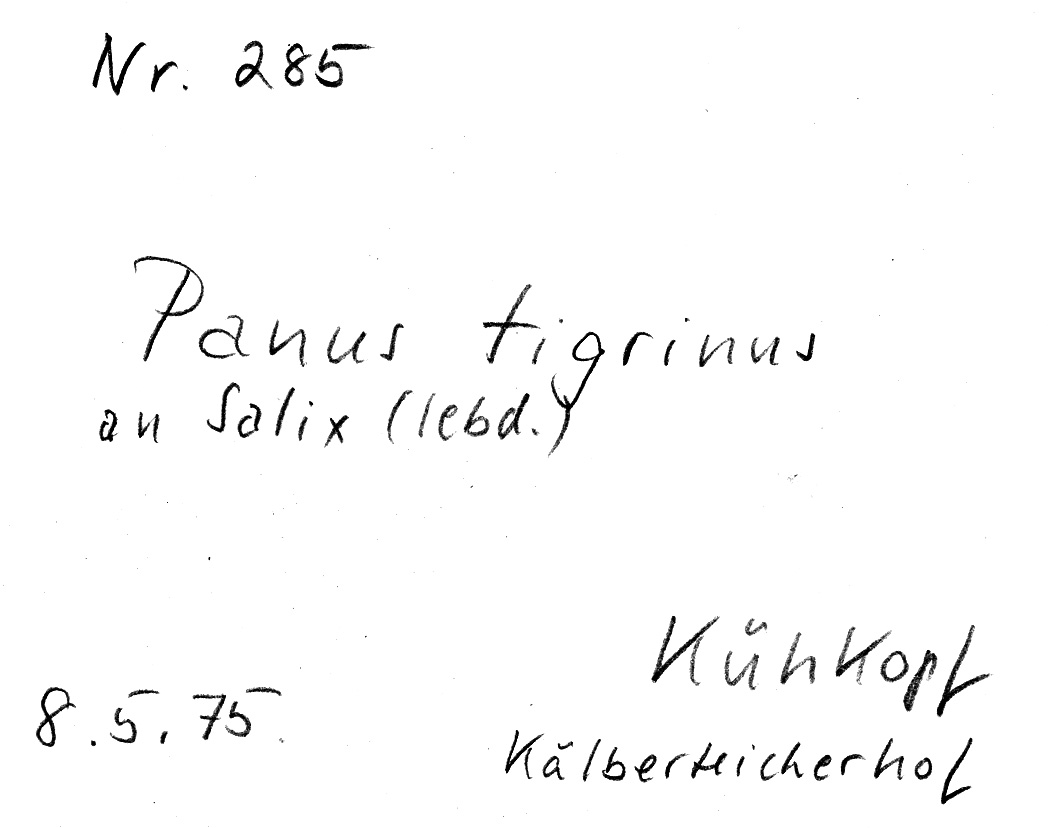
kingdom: Fungi
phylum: Basidiomycota
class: Agaricomycetes
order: Polyporales
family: Polyporaceae
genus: Lentinus
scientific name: Lentinus tigrinus
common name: Tiger sawgill
